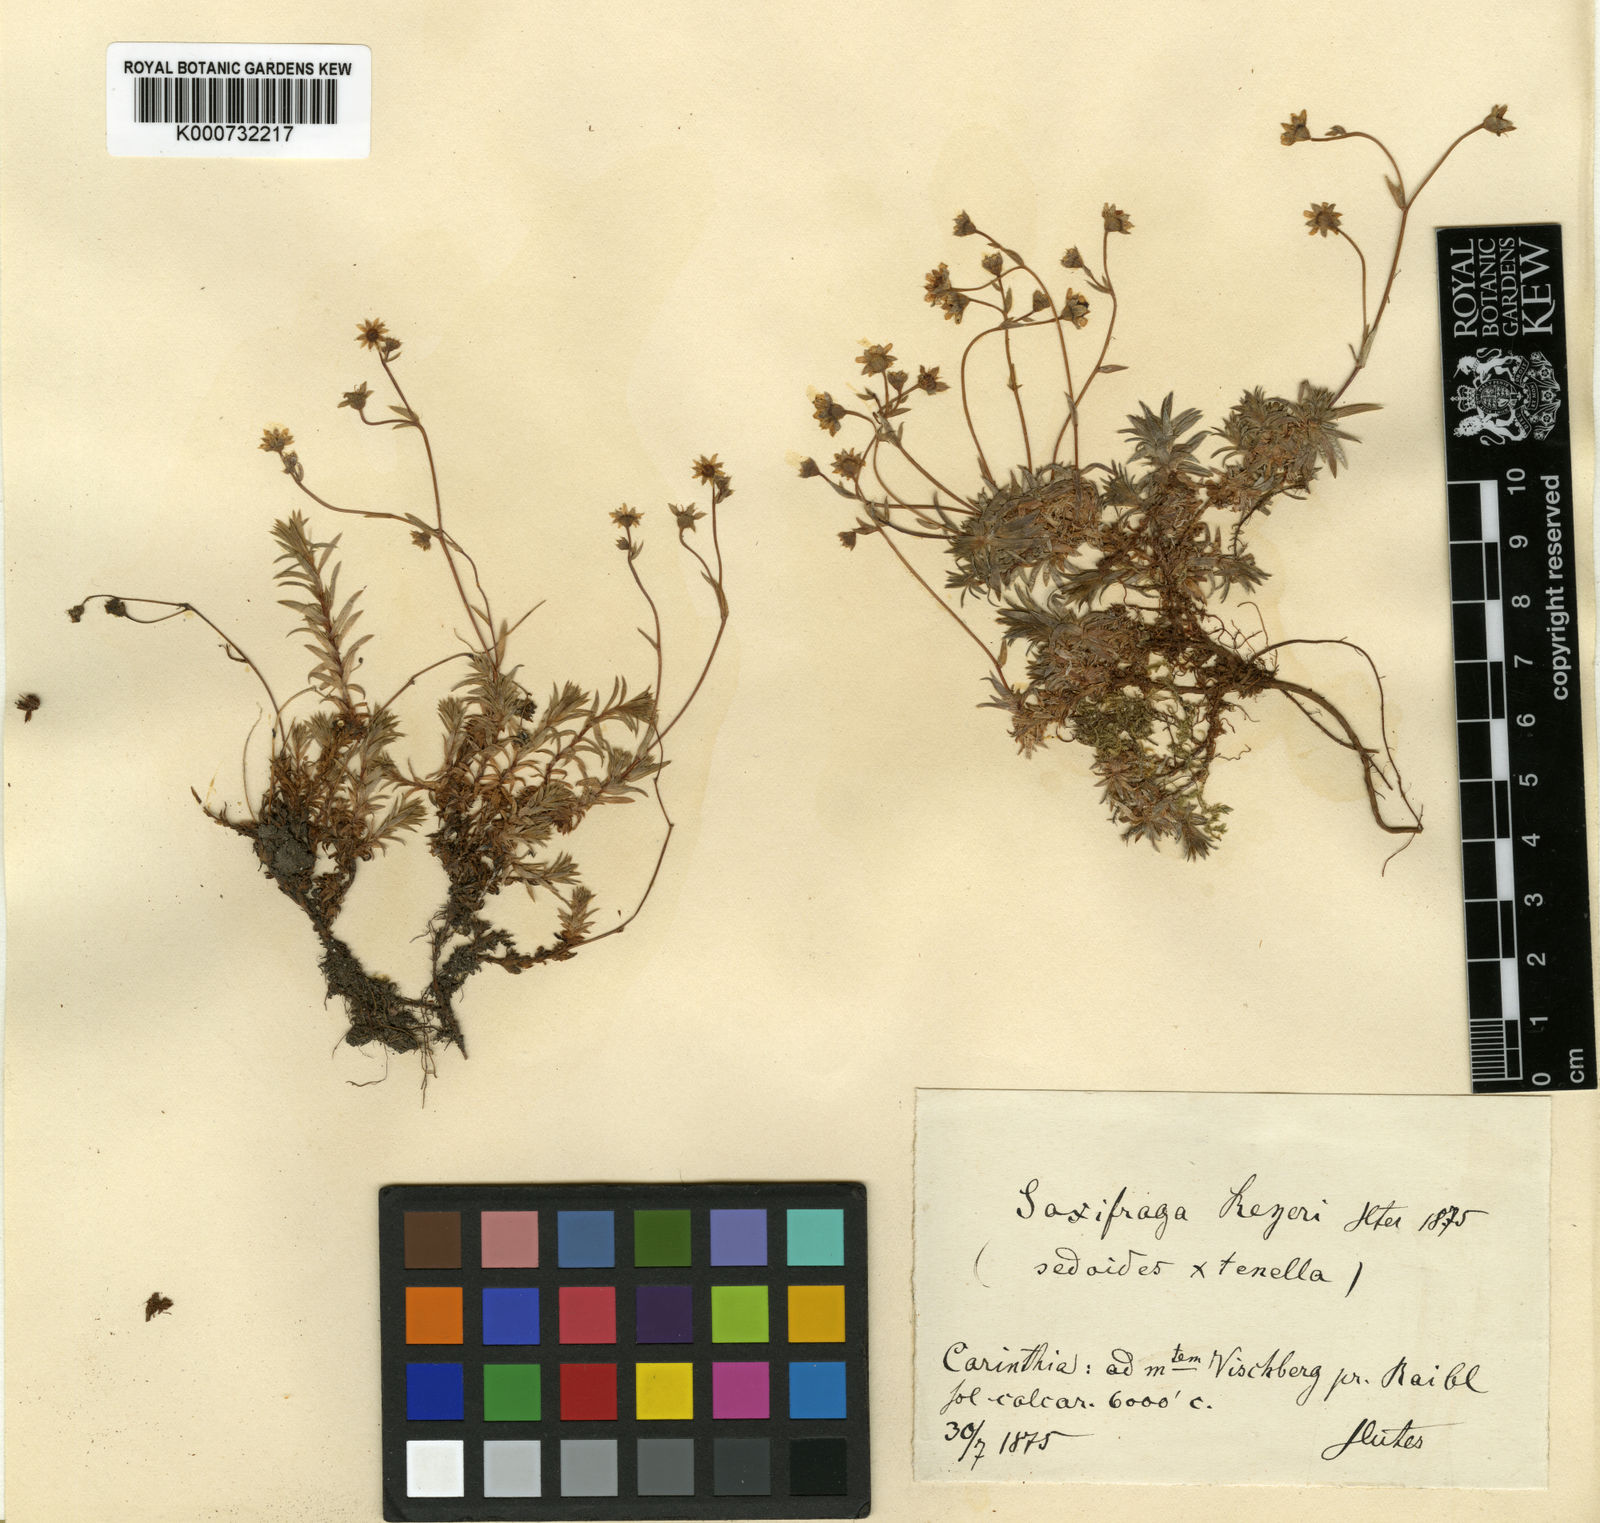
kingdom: Plantae
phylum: Tracheophyta
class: Magnoliopsida
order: Saxifragales
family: Saxifragaceae
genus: Saxifraga
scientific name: Saxifraga tenella
